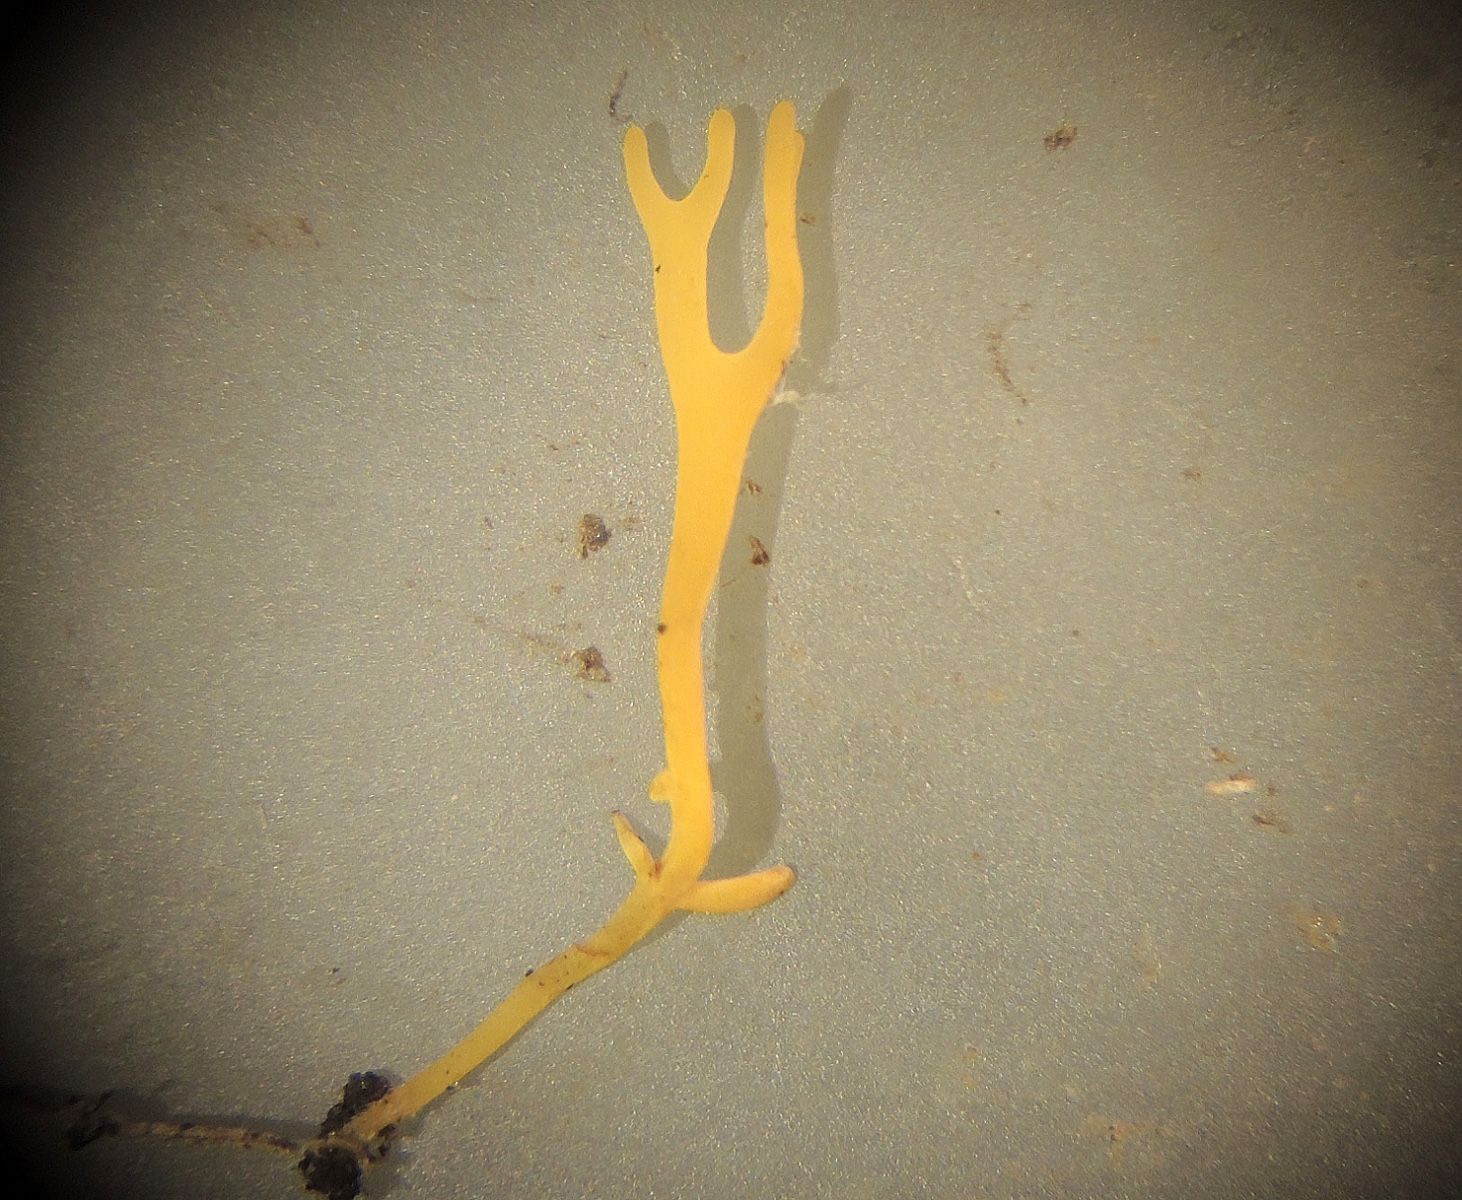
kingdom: Fungi
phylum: Basidiomycota
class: Agaricomycetes
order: Agaricales
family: Clavariaceae
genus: Ramariopsis
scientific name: Ramariopsis crocea
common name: gylden køllesvamp
